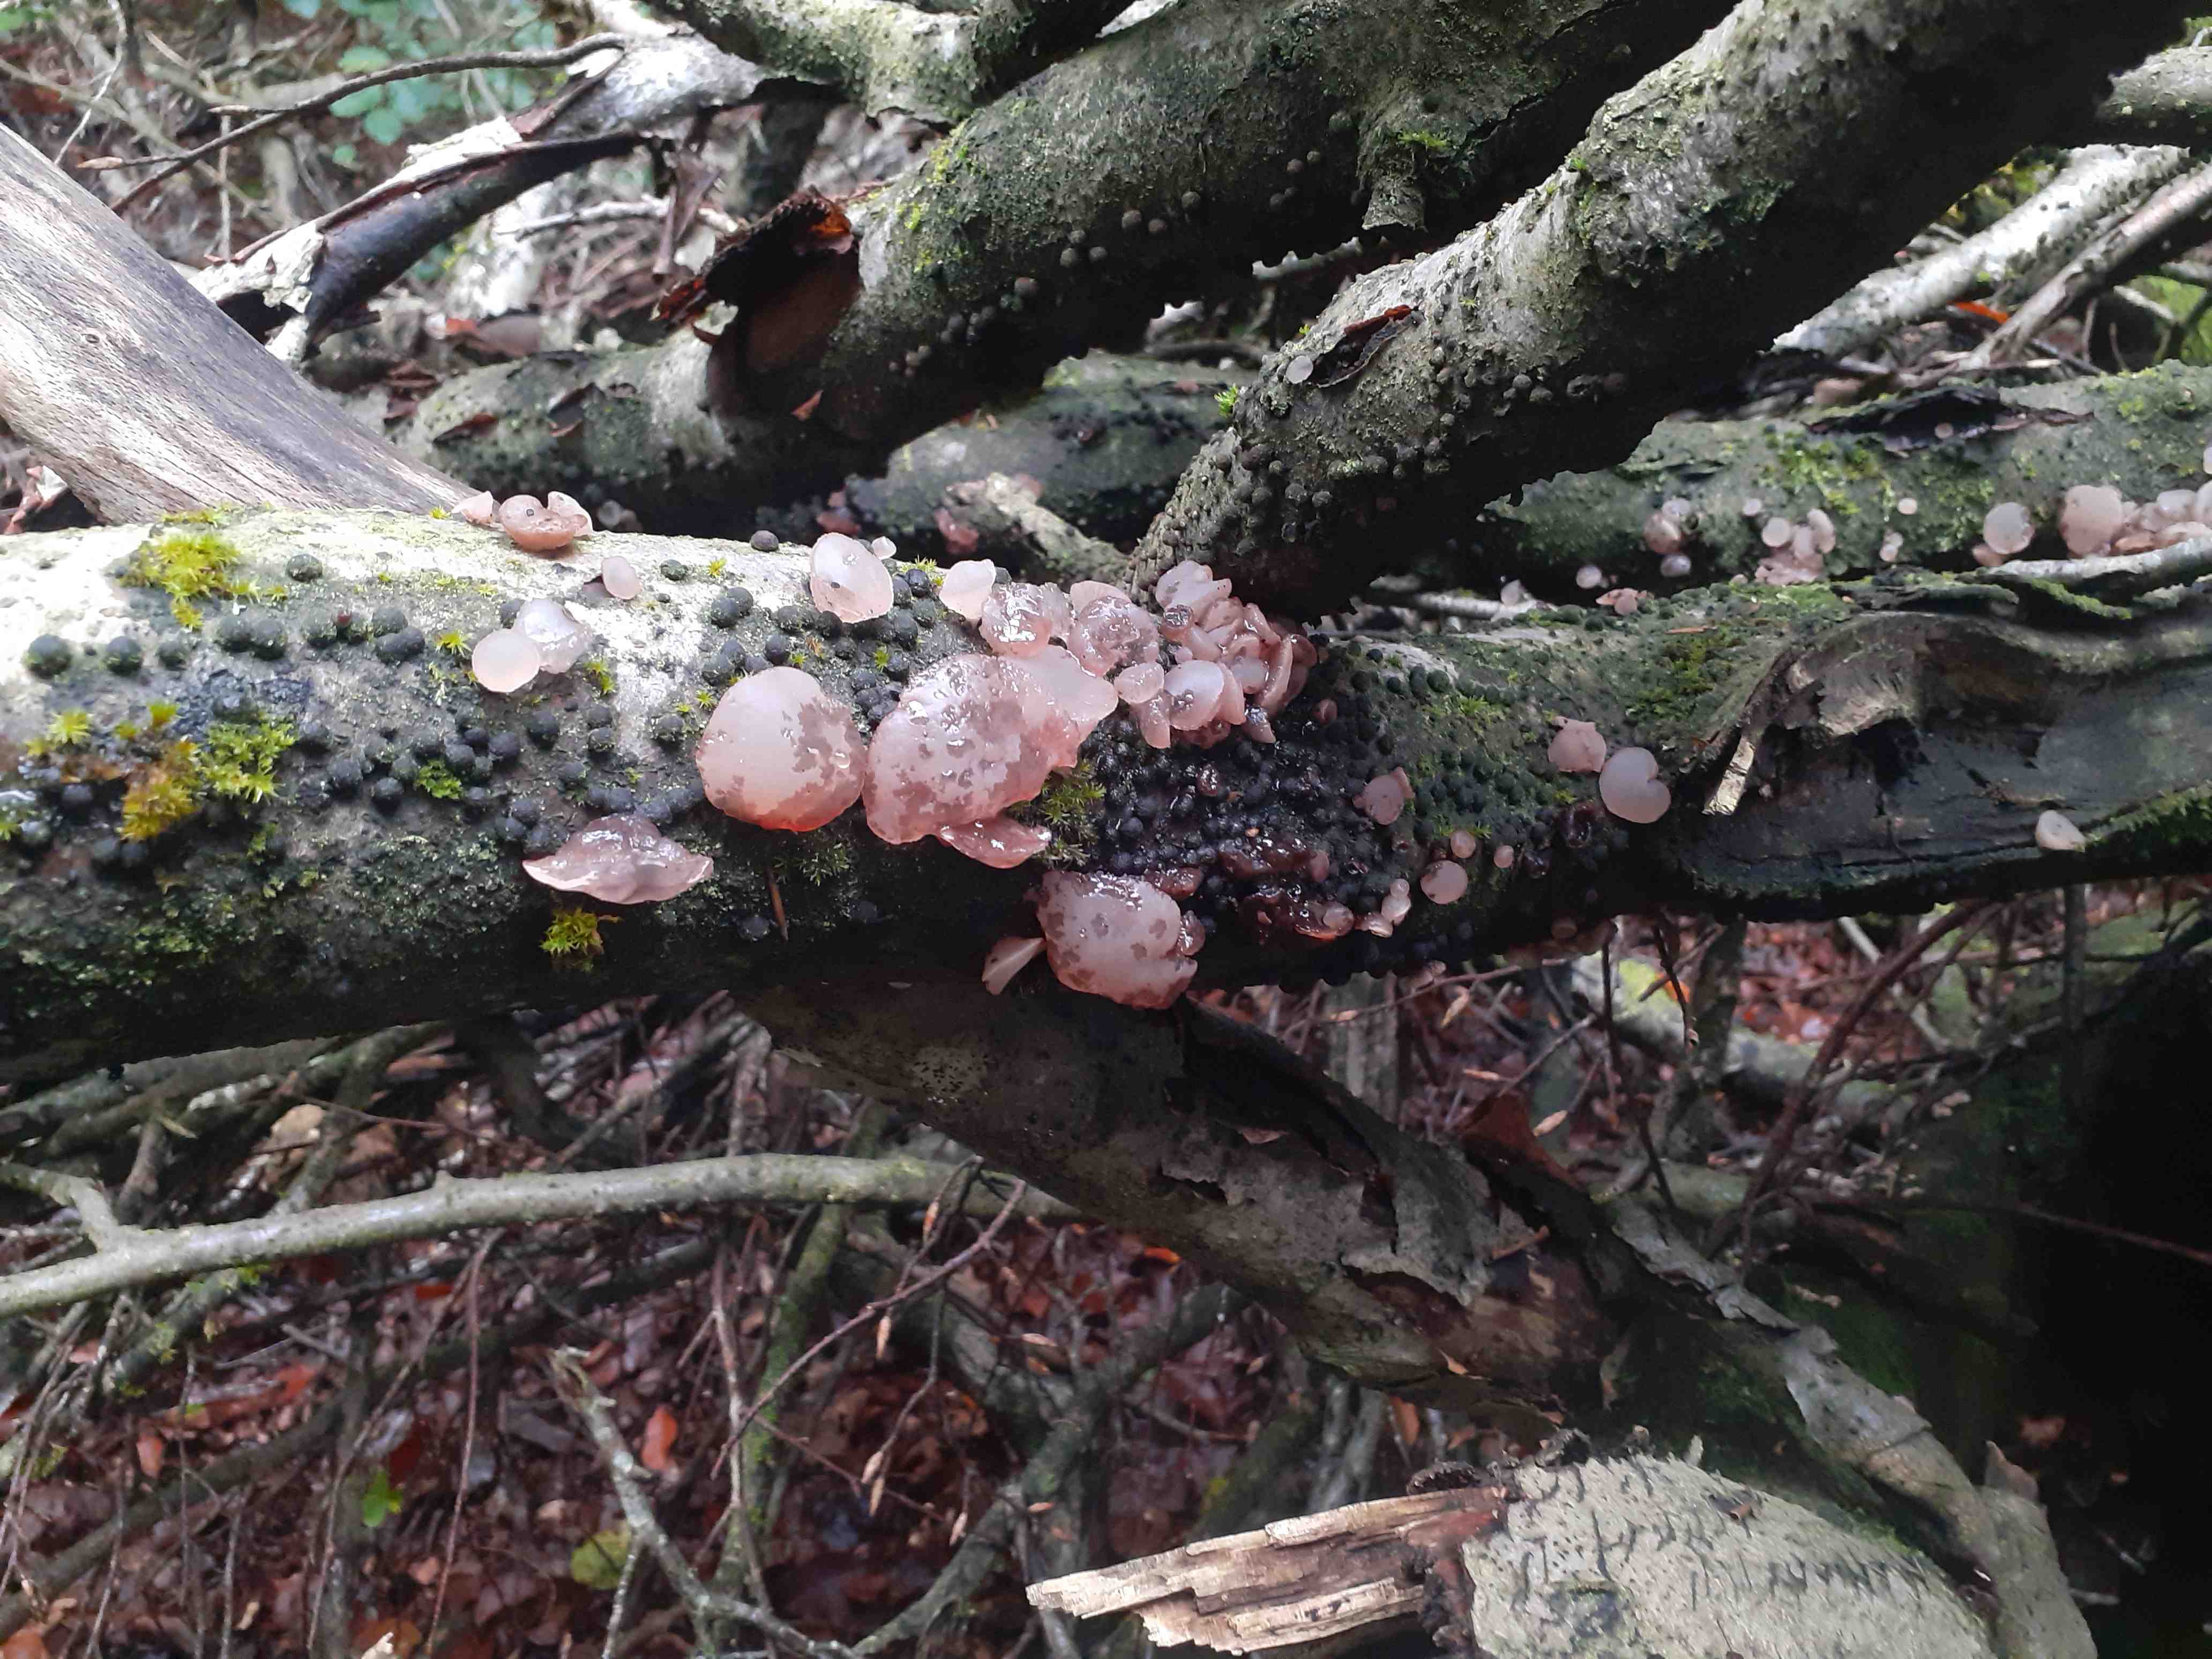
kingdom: Fungi
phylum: Ascomycota
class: Leotiomycetes
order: Helotiales
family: Gelatinodiscaceae
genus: Neobulgaria
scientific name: Neobulgaria pura
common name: bleg bævreskive
